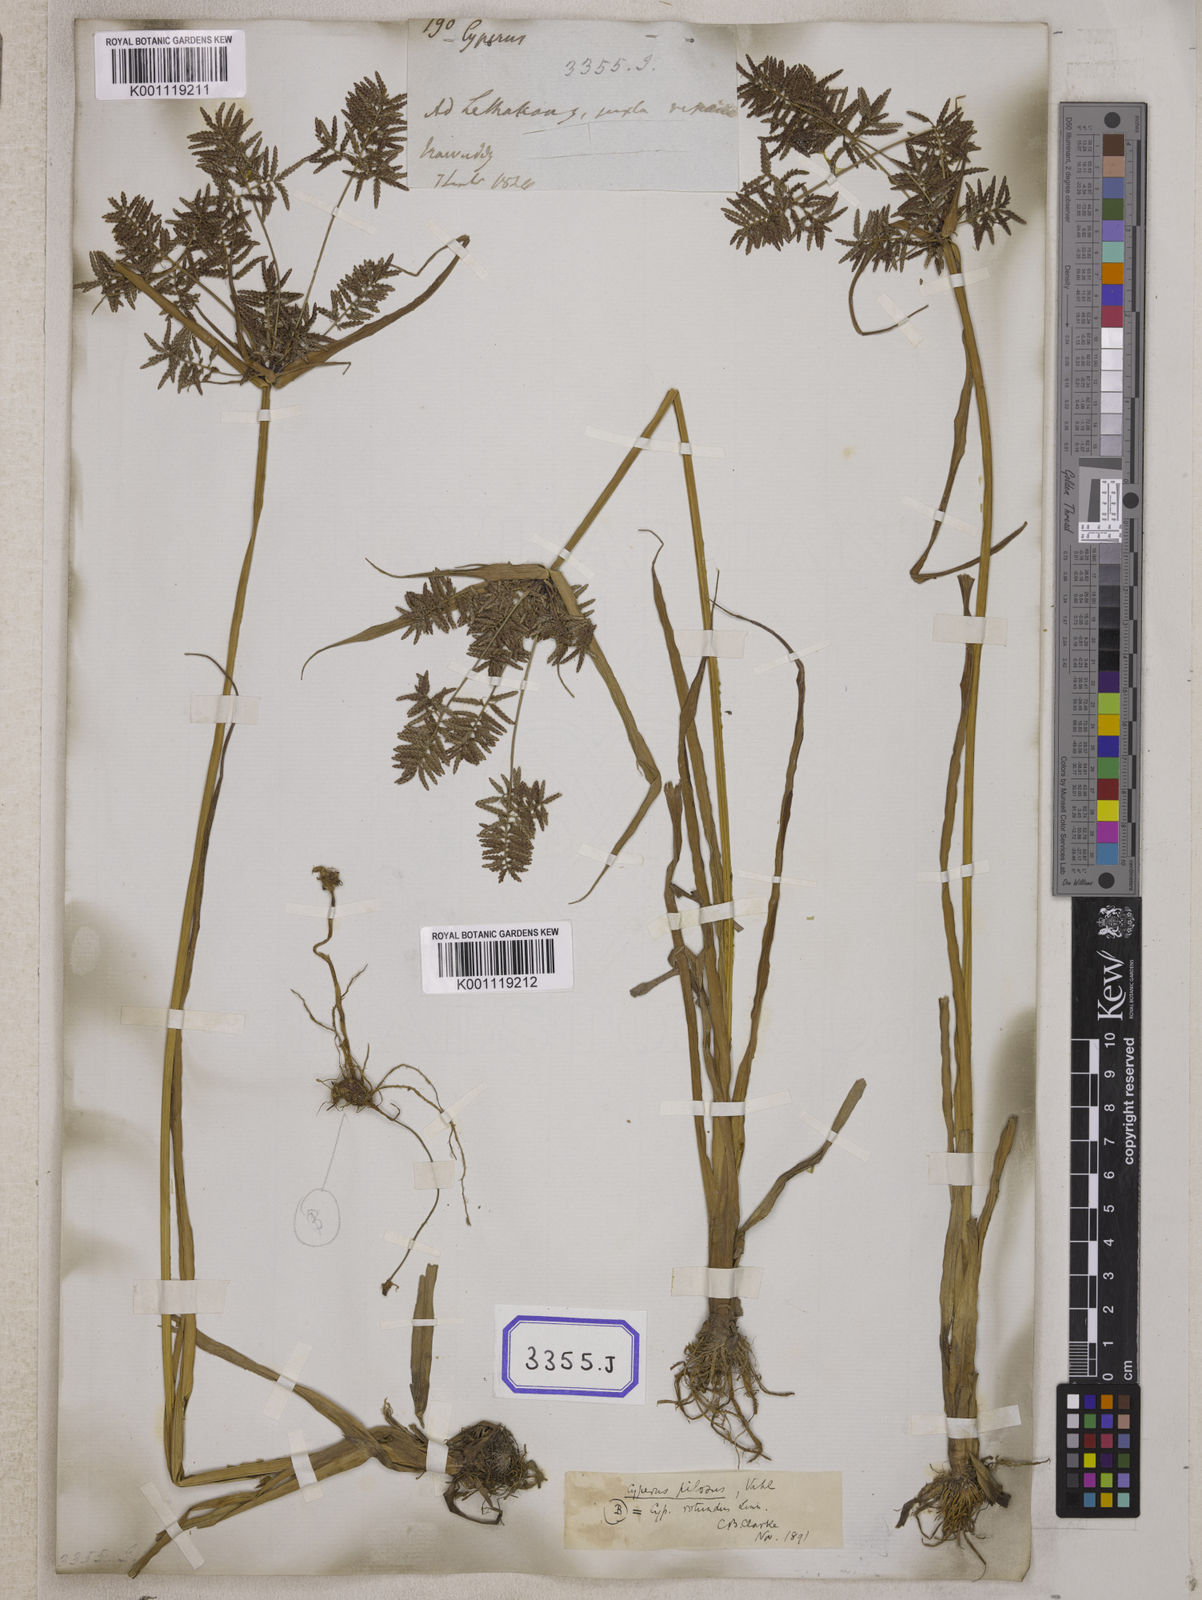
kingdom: Plantae
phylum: Tracheophyta
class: Liliopsida
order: Poales
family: Cyperaceae
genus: Cyperus
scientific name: Cyperus
